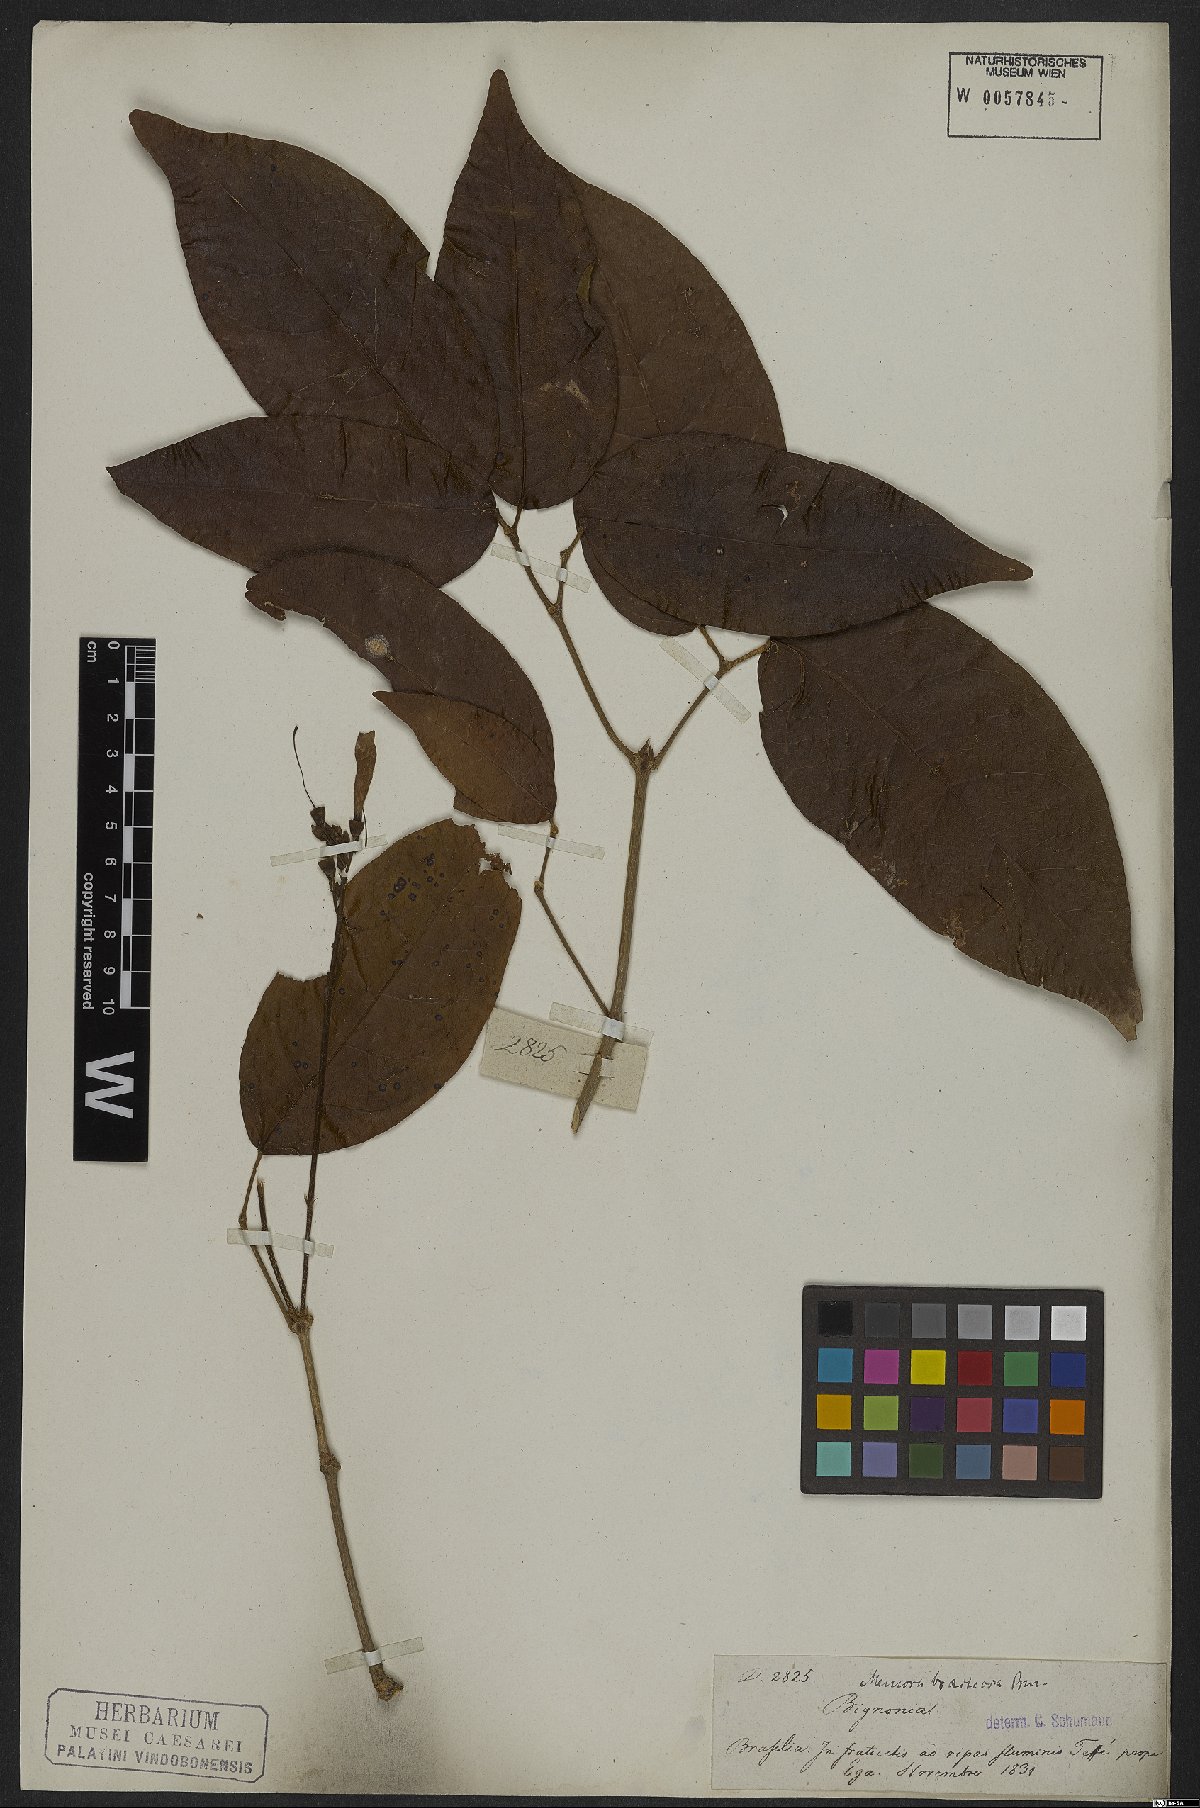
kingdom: Plantae
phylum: Tracheophyta
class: Magnoliopsida
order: Lamiales
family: Bignoniaceae
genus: Adenocalymma
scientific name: Adenocalymma bracteosum
